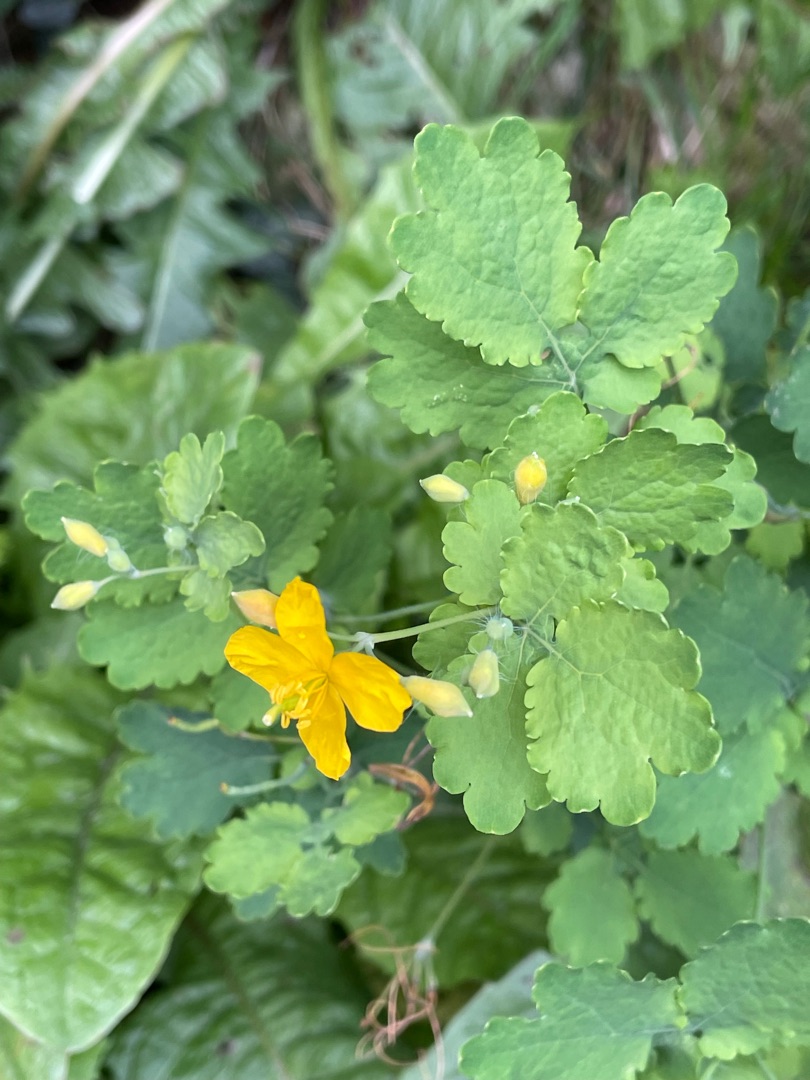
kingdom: Plantae
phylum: Tracheophyta
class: Magnoliopsida
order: Ranunculales
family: Papaveraceae
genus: Chelidonium
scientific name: Chelidonium majus
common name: Svaleurt
